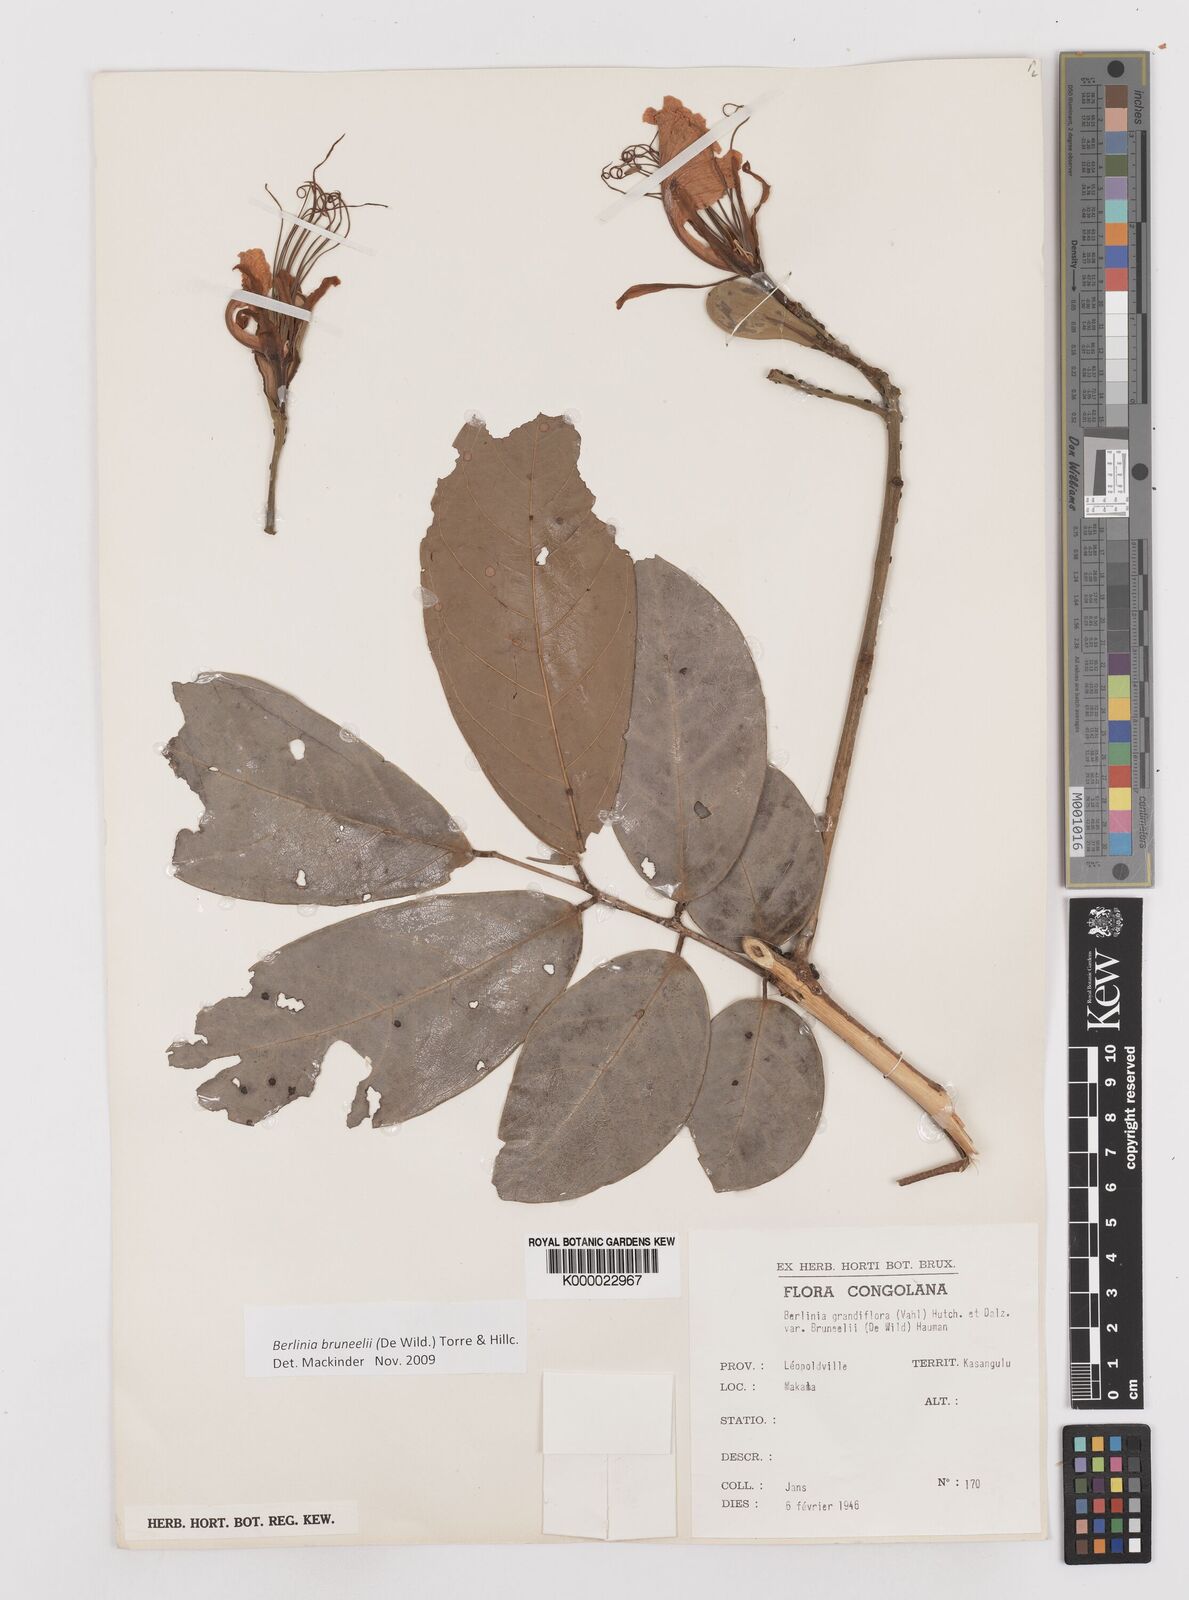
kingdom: Plantae
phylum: Tracheophyta
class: Magnoliopsida
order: Fabales
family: Fabaceae
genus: Berlinia
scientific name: Berlinia bruneelii
